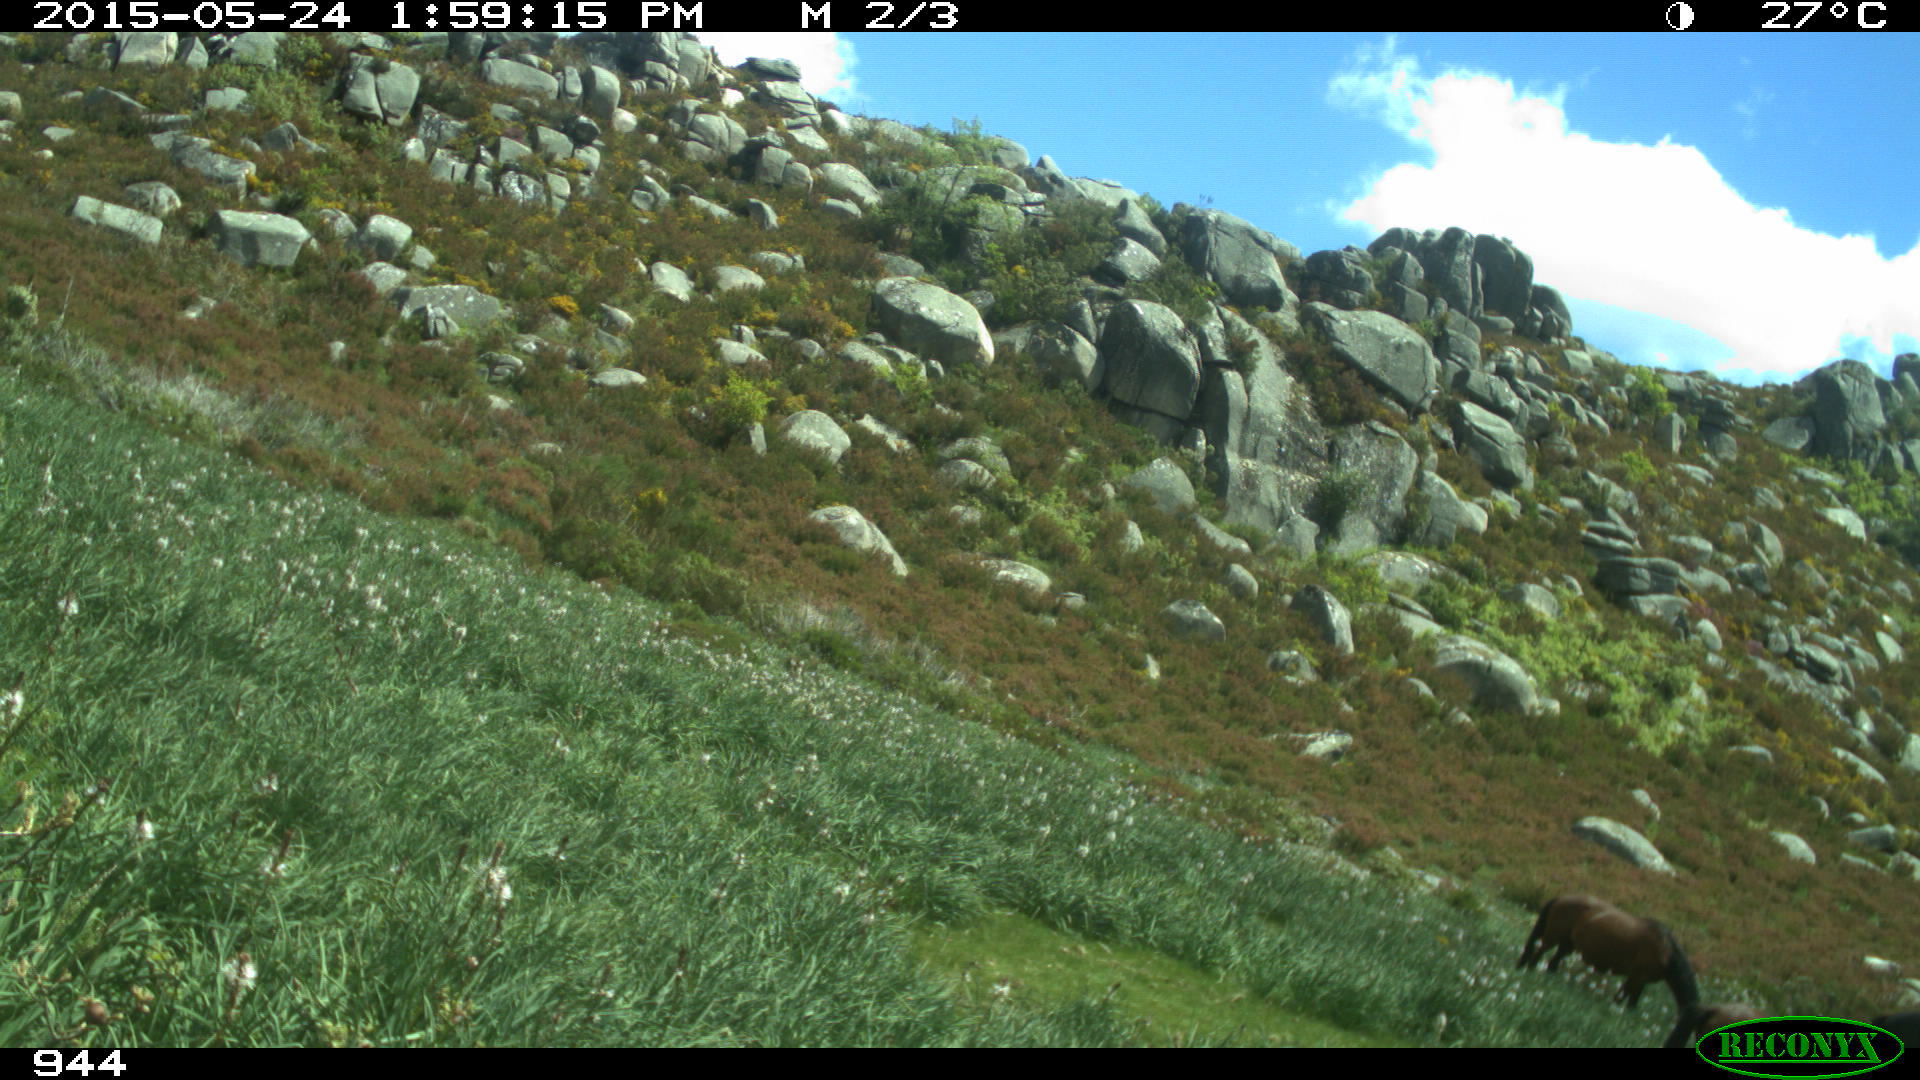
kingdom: Animalia
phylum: Chordata
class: Mammalia
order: Perissodactyla
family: Equidae
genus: Equus
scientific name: Equus caballus
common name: Horse
